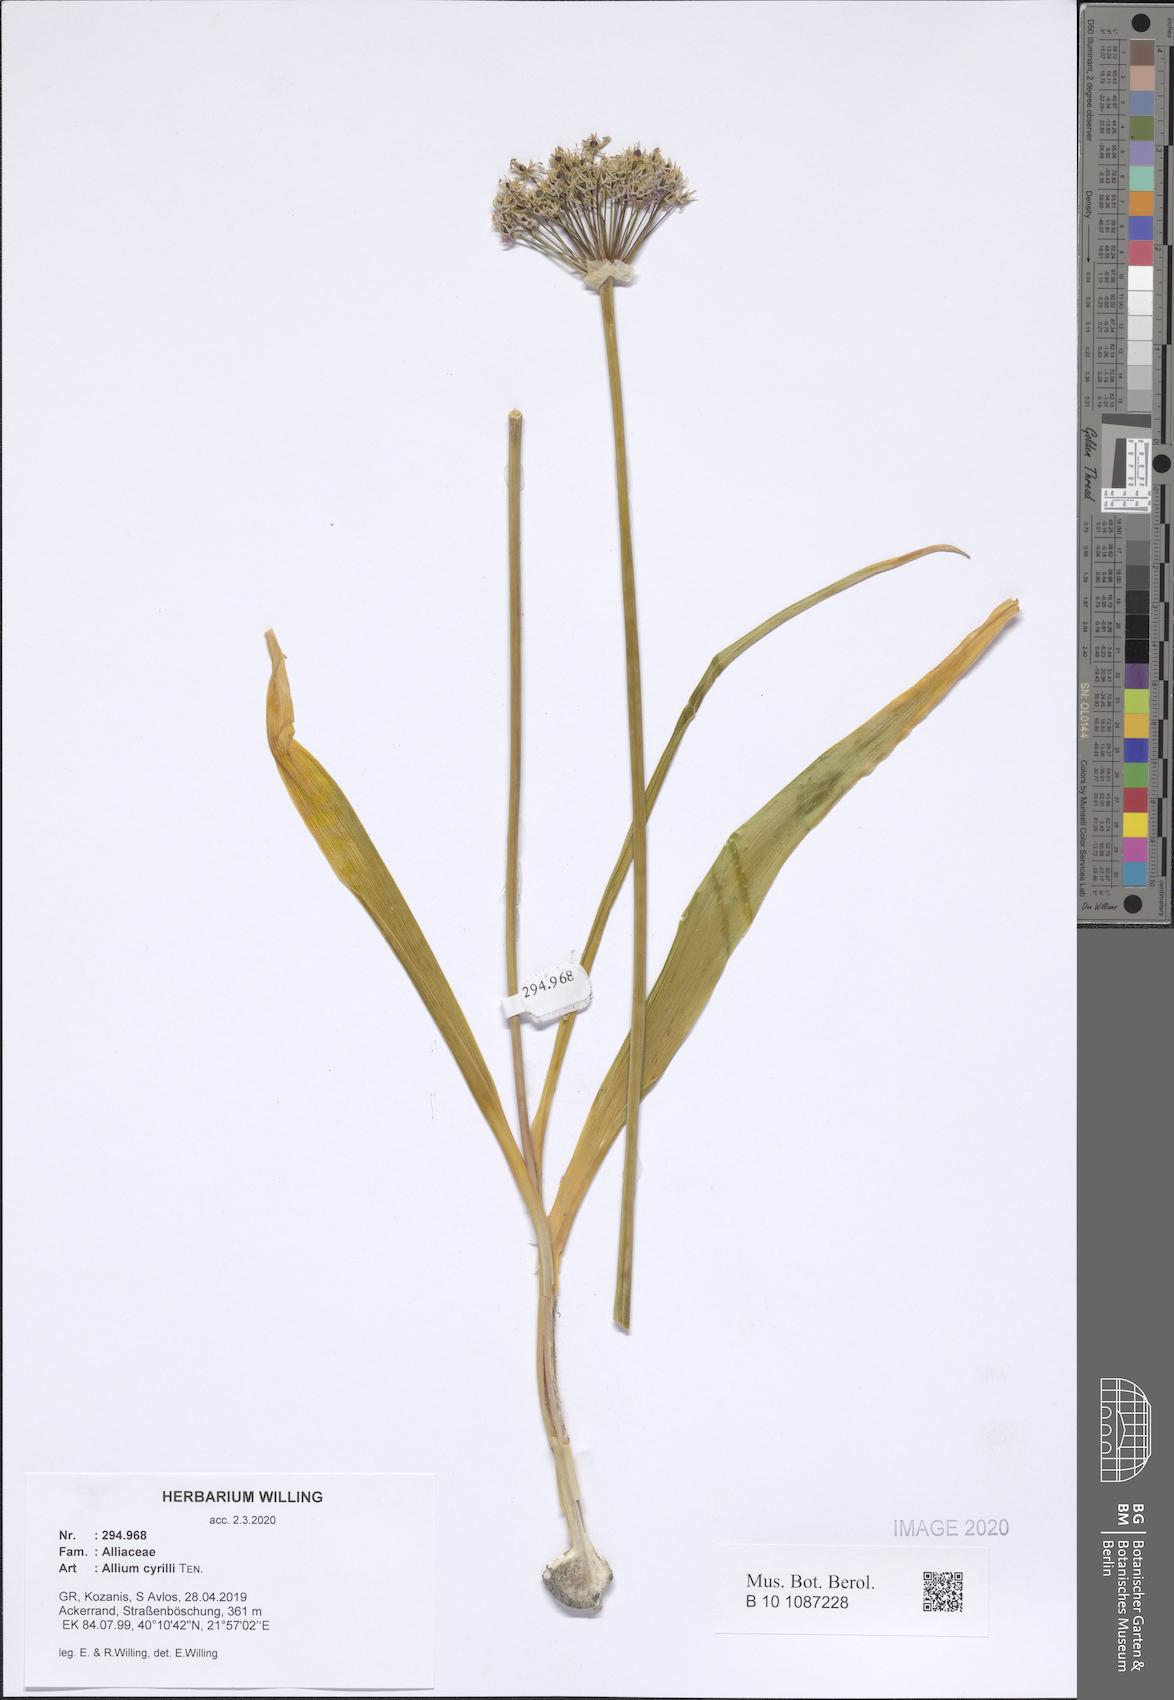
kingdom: Plantae
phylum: Tracheophyta
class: Liliopsida
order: Asparagales
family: Amaryllidaceae
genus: Allium
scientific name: Allium cyrilli
